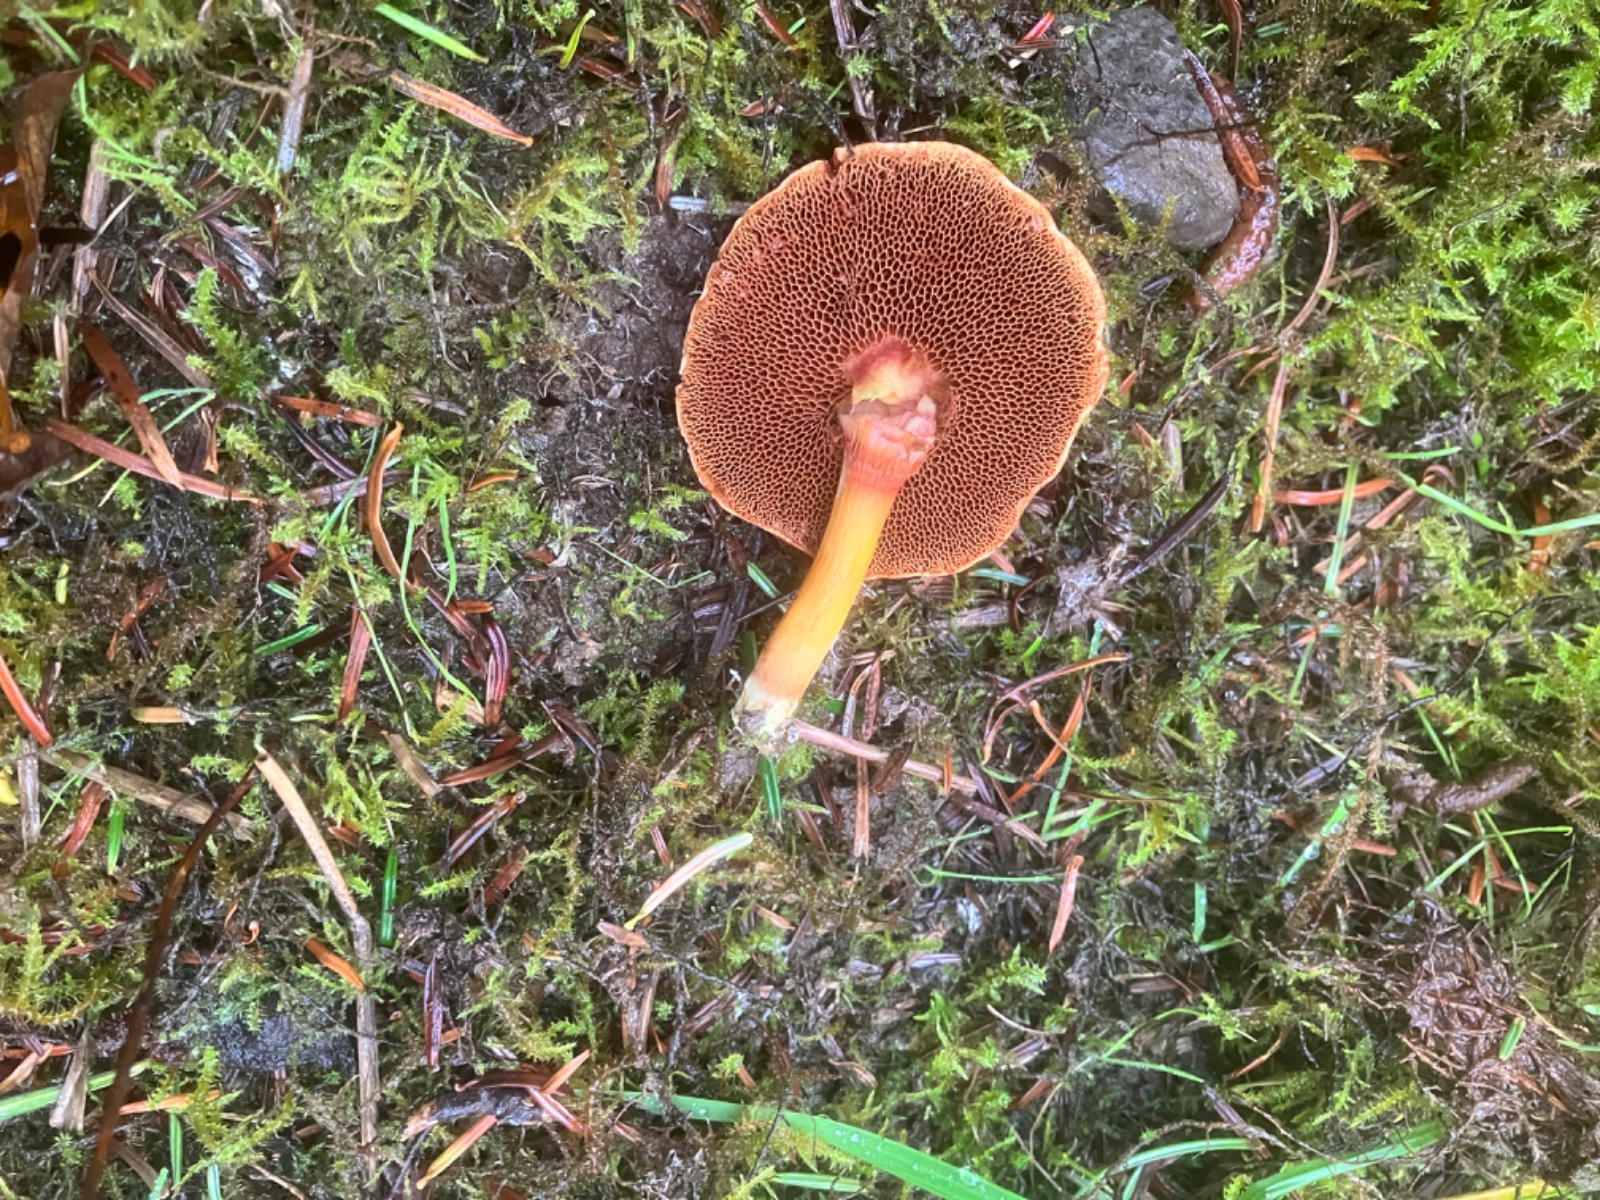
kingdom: Fungi
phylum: Basidiomycota
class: Agaricomycetes
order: Boletales
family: Boletaceae
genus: Chalciporus
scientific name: Chalciporus piperatus
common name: peberrørhat
